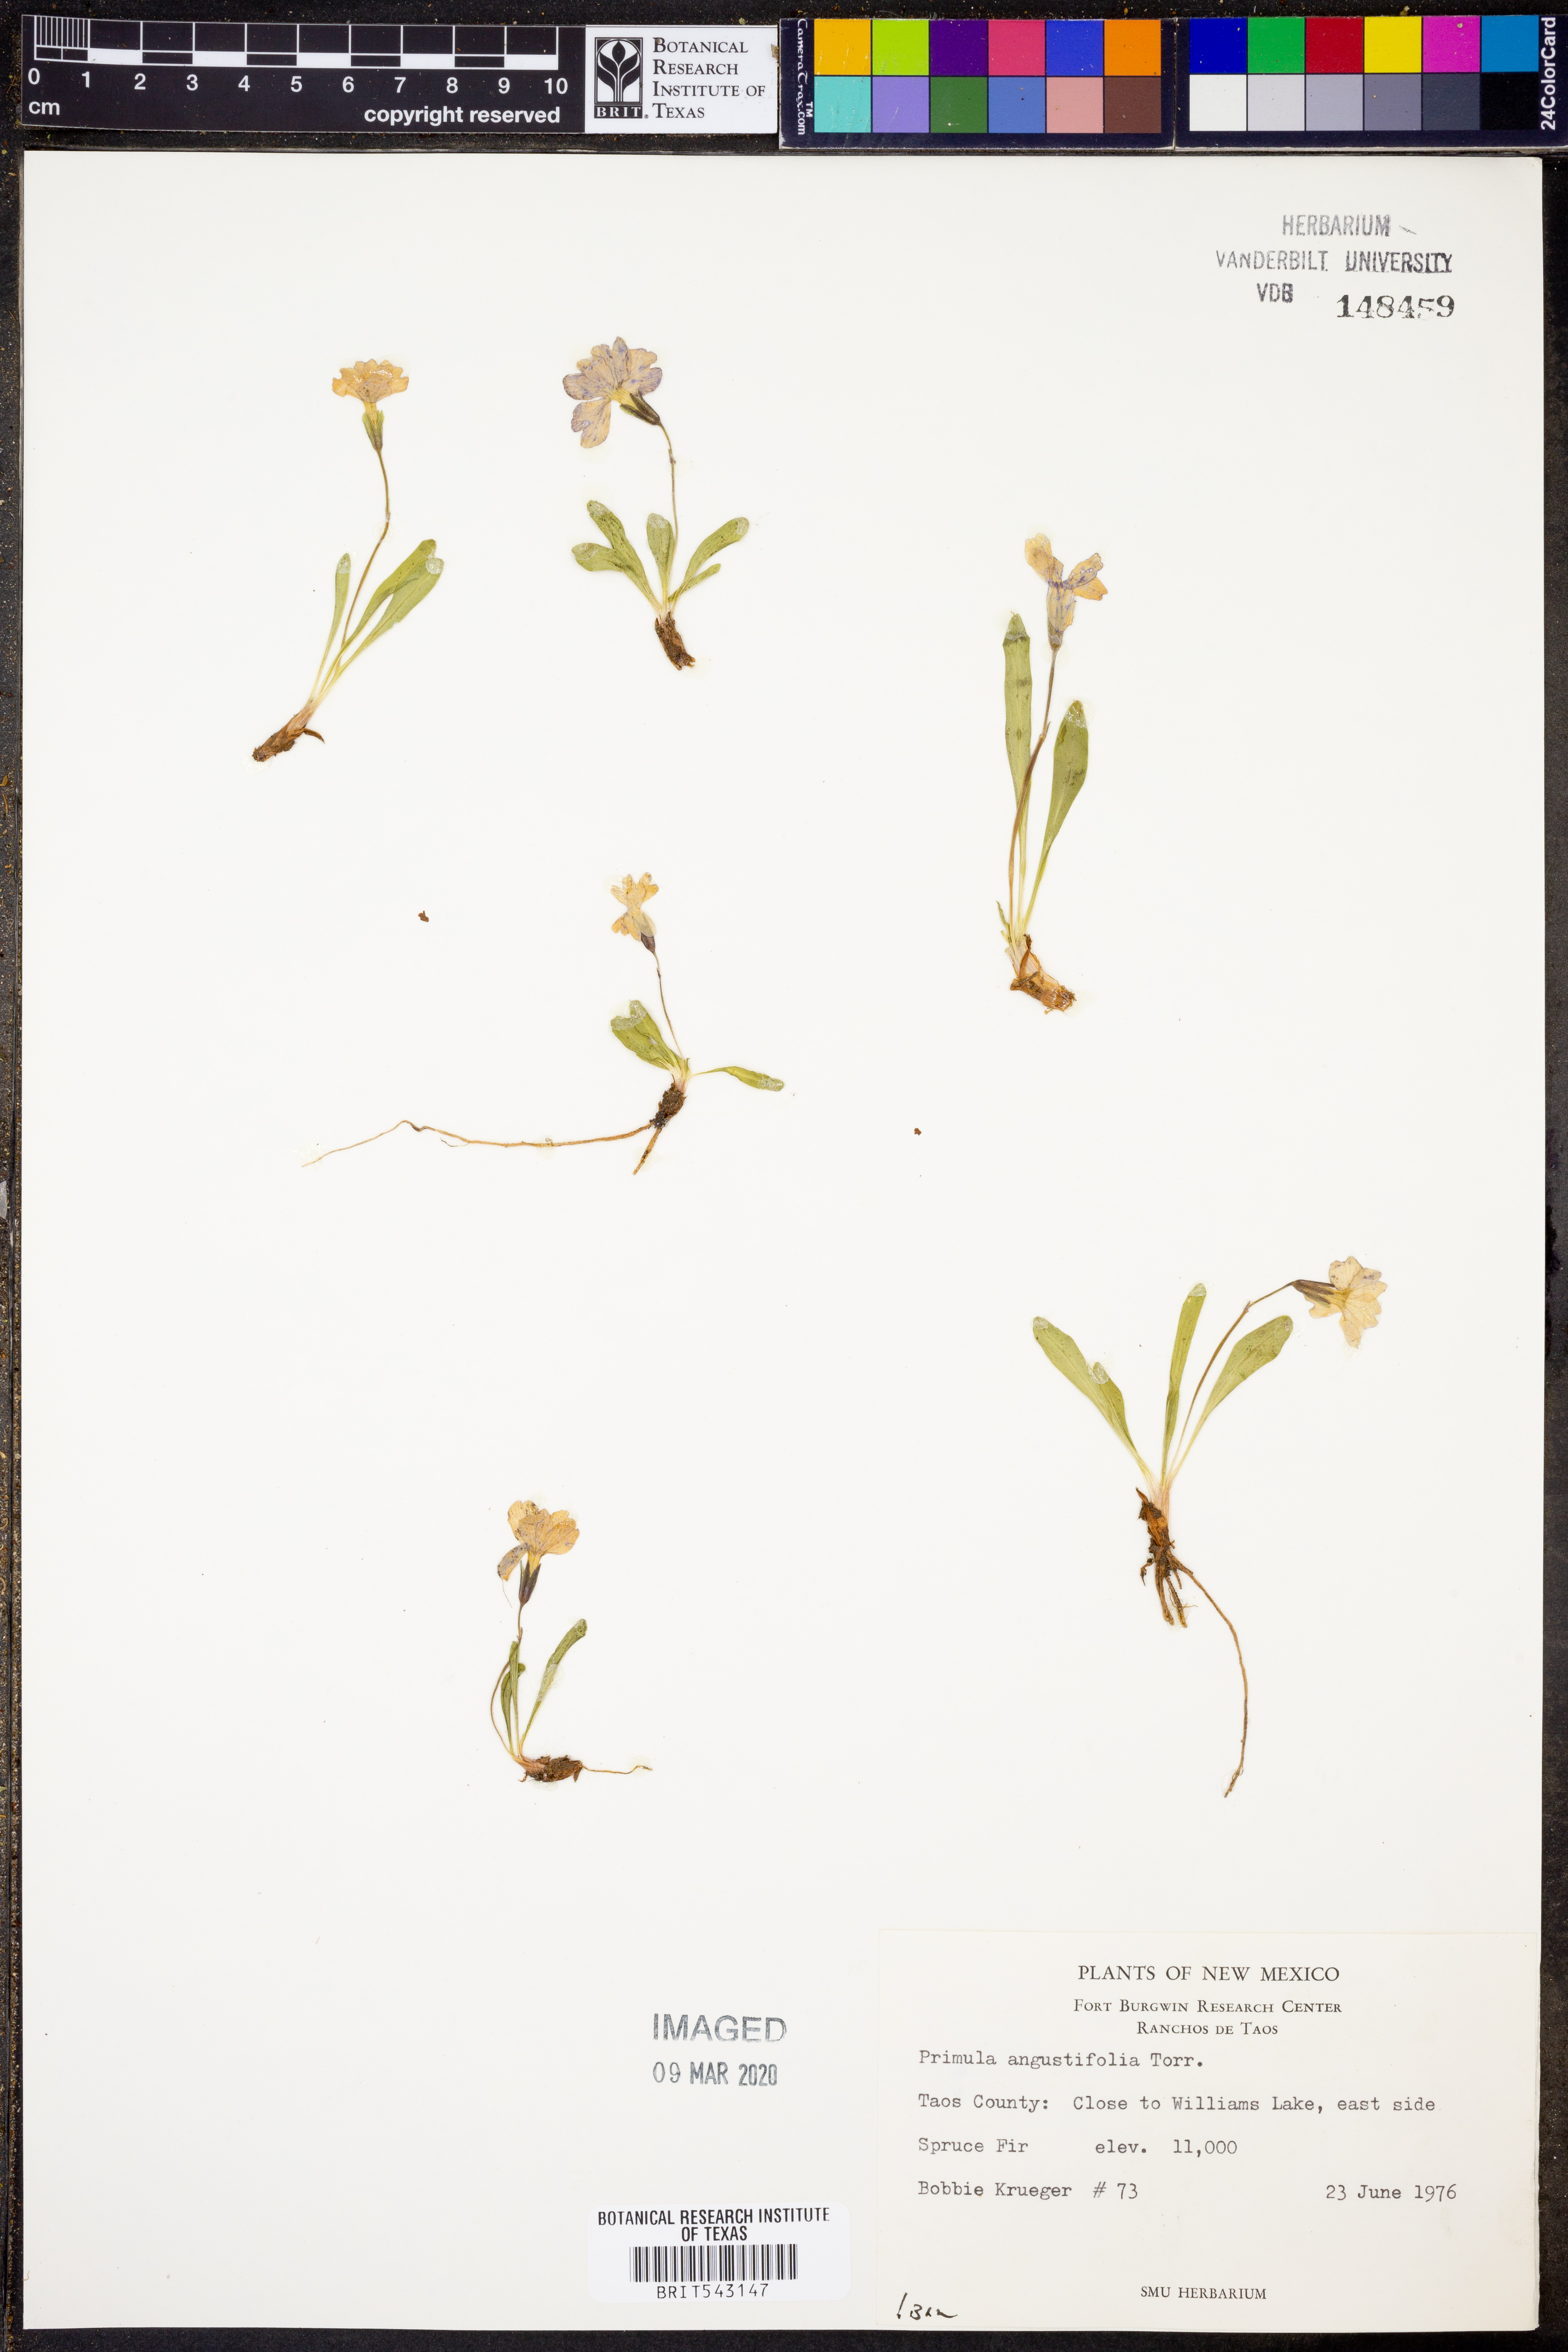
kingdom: Plantae
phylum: Tracheophyta
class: Magnoliopsida
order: Ericales
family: Primulaceae
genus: Primula
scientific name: Primula angustifolia
